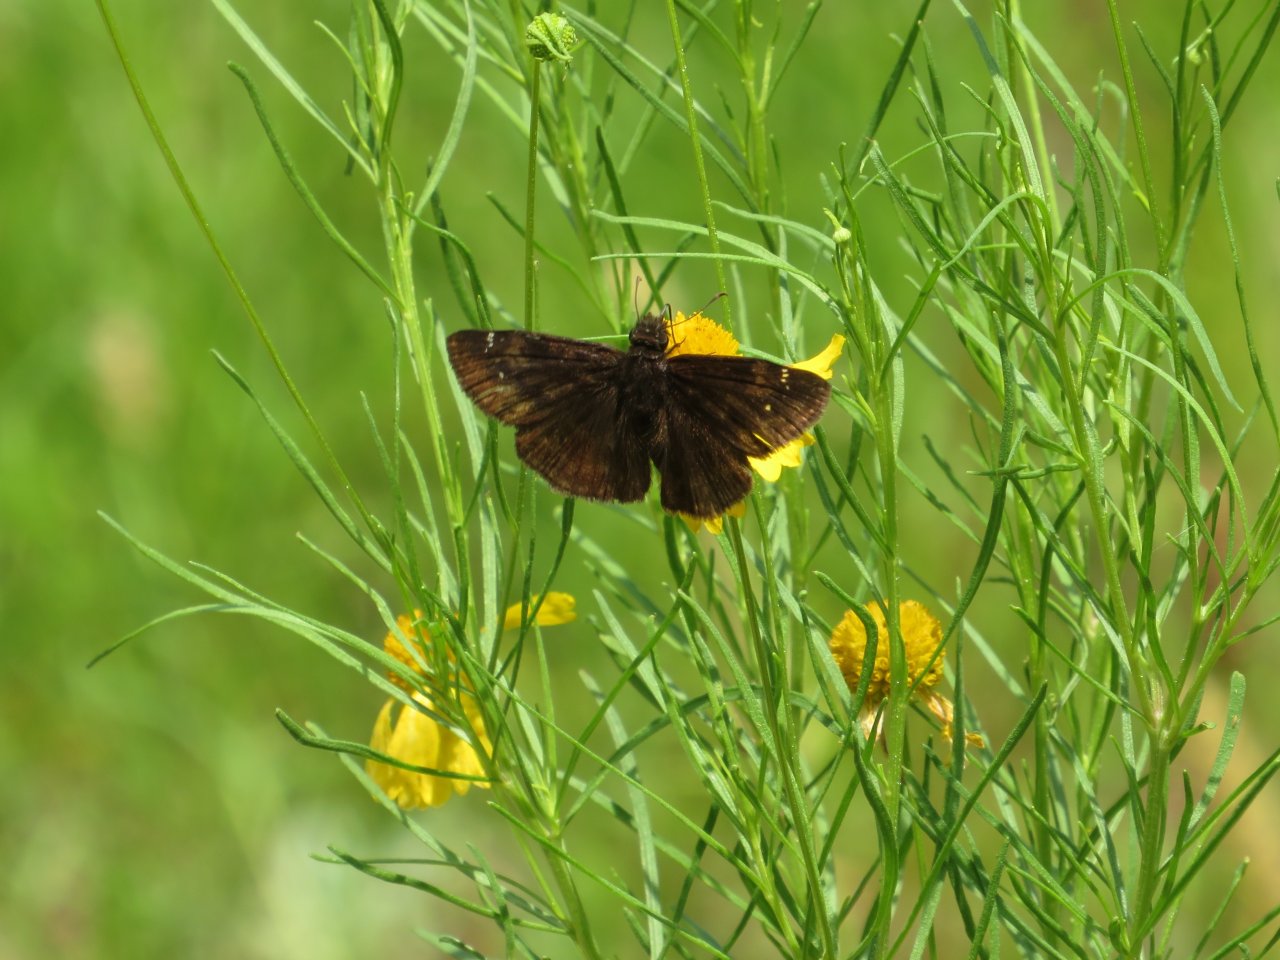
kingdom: Animalia
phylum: Arthropoda
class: Insecta
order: Lepidoptera
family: Hesperiidae
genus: Erynnis
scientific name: Erynnis zarucco
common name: Zarucco Duskywing
